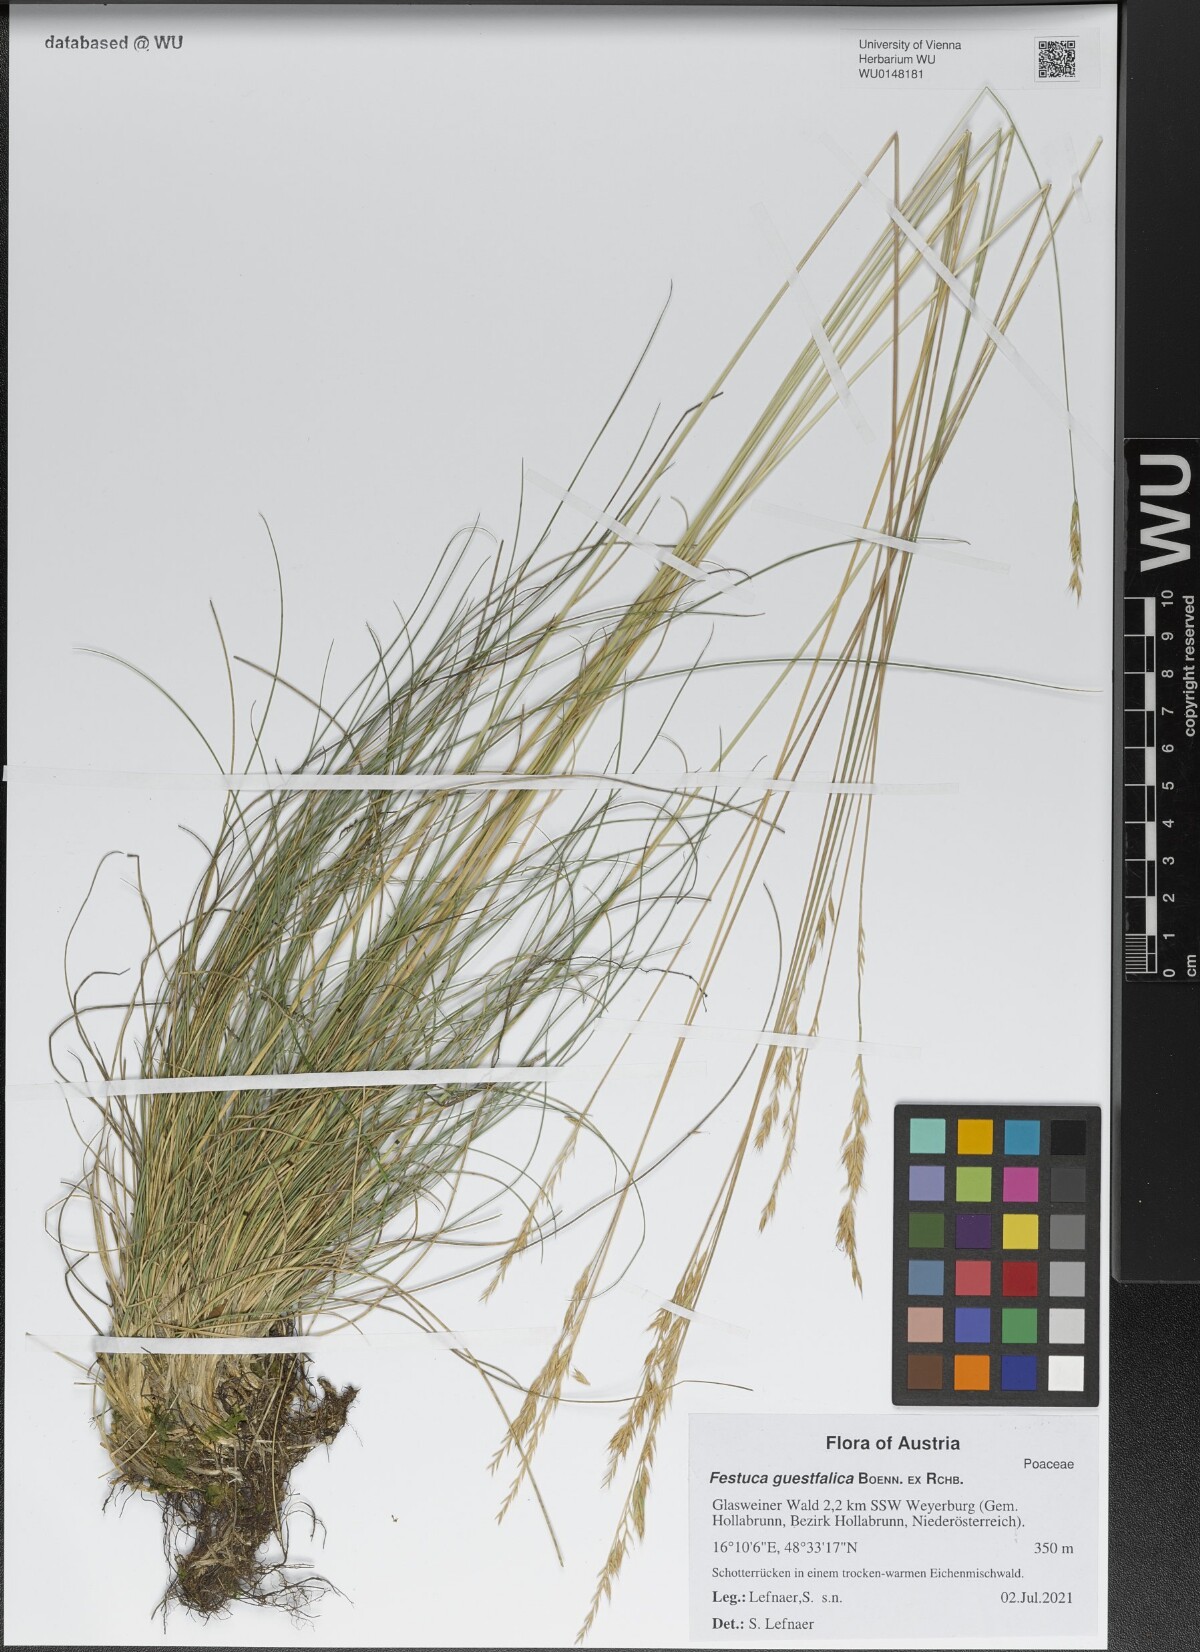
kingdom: Plantae
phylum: Tracheophyta
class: Liliopsida
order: Poales
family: Poaceae
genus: Festuca
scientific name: Festuca guestfalica
